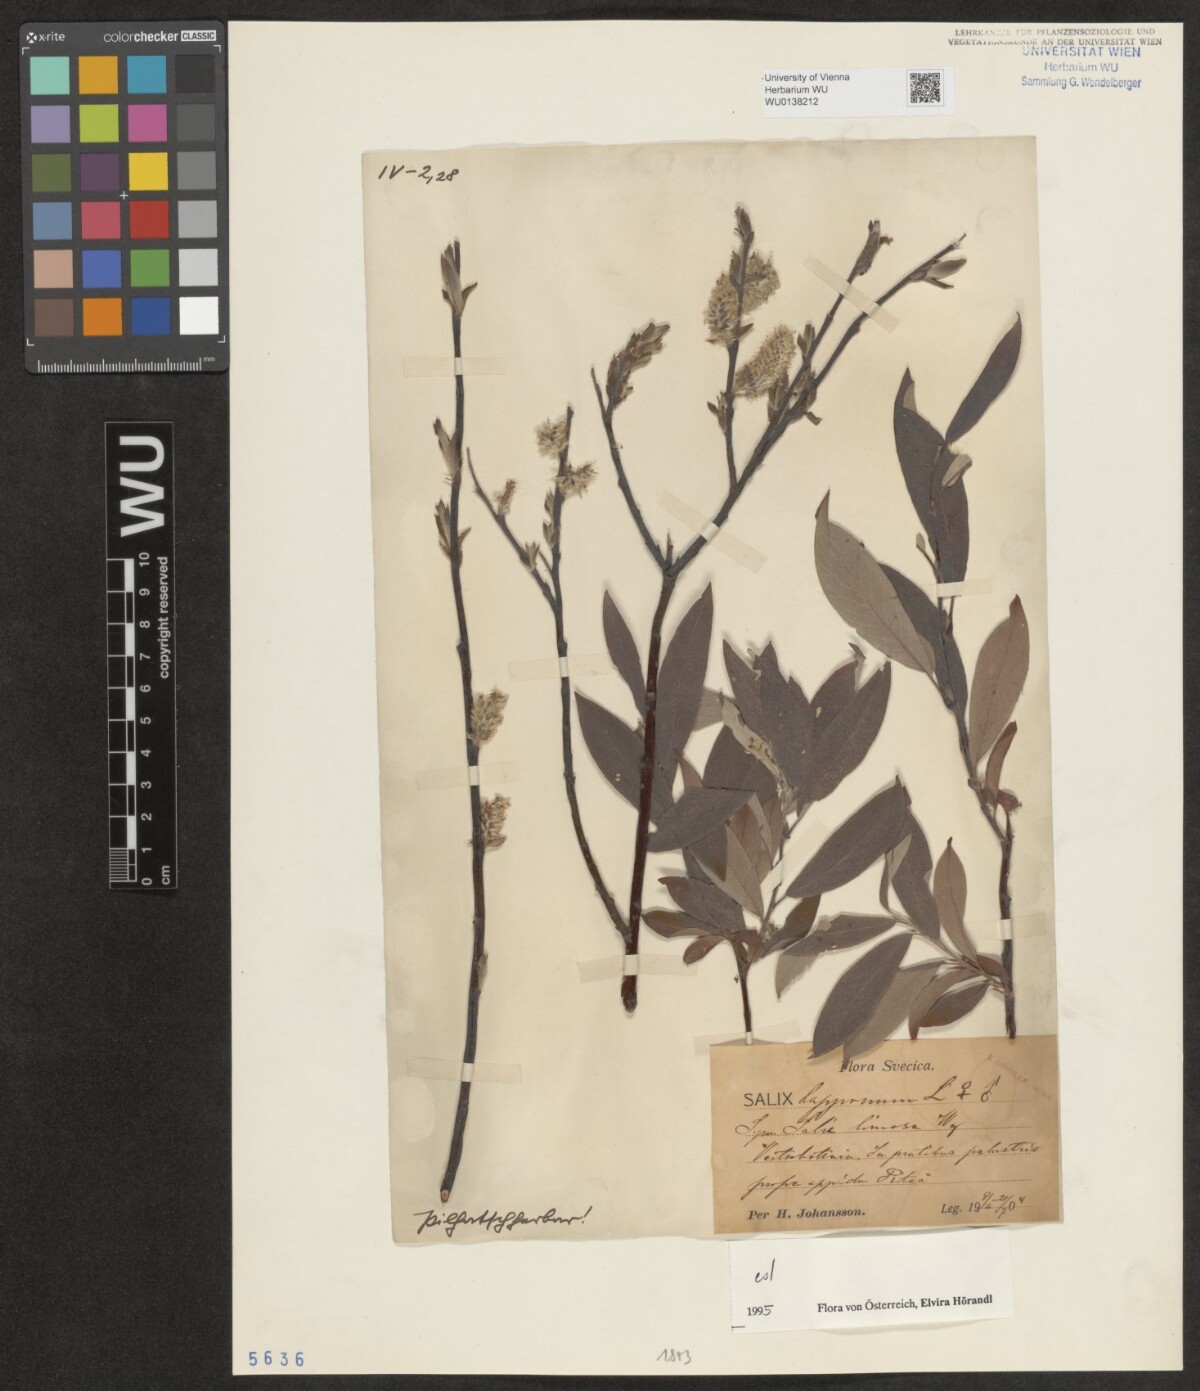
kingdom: Plantae
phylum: Tracheophyta
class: Magnoliopsida
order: Malpighiales
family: Salicaceae
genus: Salix
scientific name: Salix lapponum
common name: Downy willow
